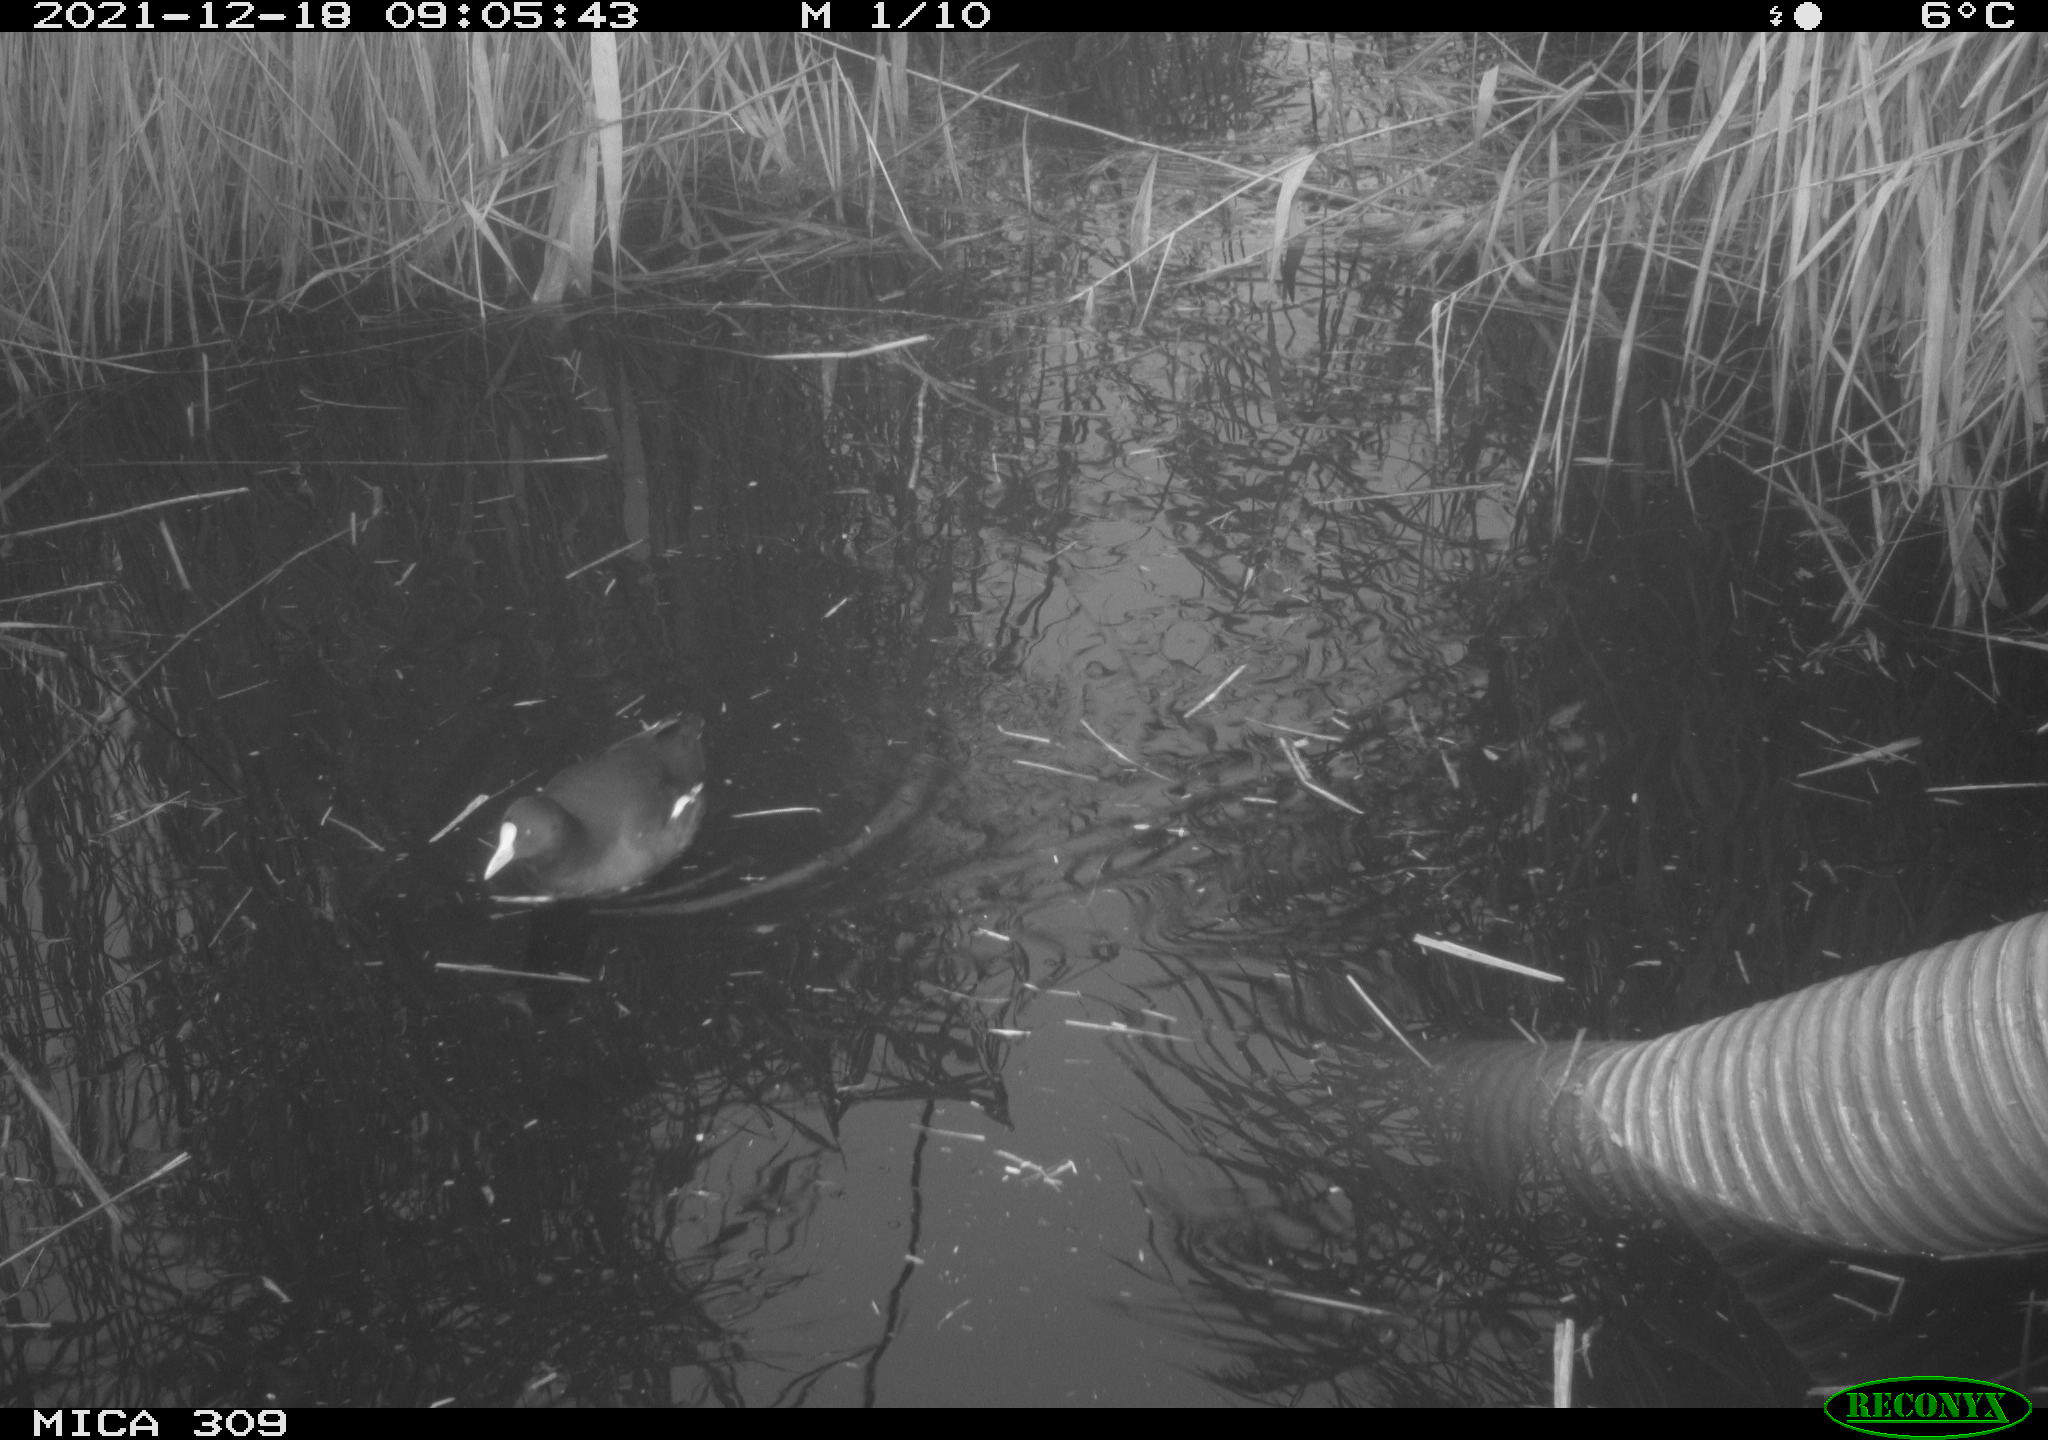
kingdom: Animalia
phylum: Chordata
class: Aves
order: Gruiformes
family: Rallidae
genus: Gallinula
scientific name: Gallinula chloropus
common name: Common moorhen
